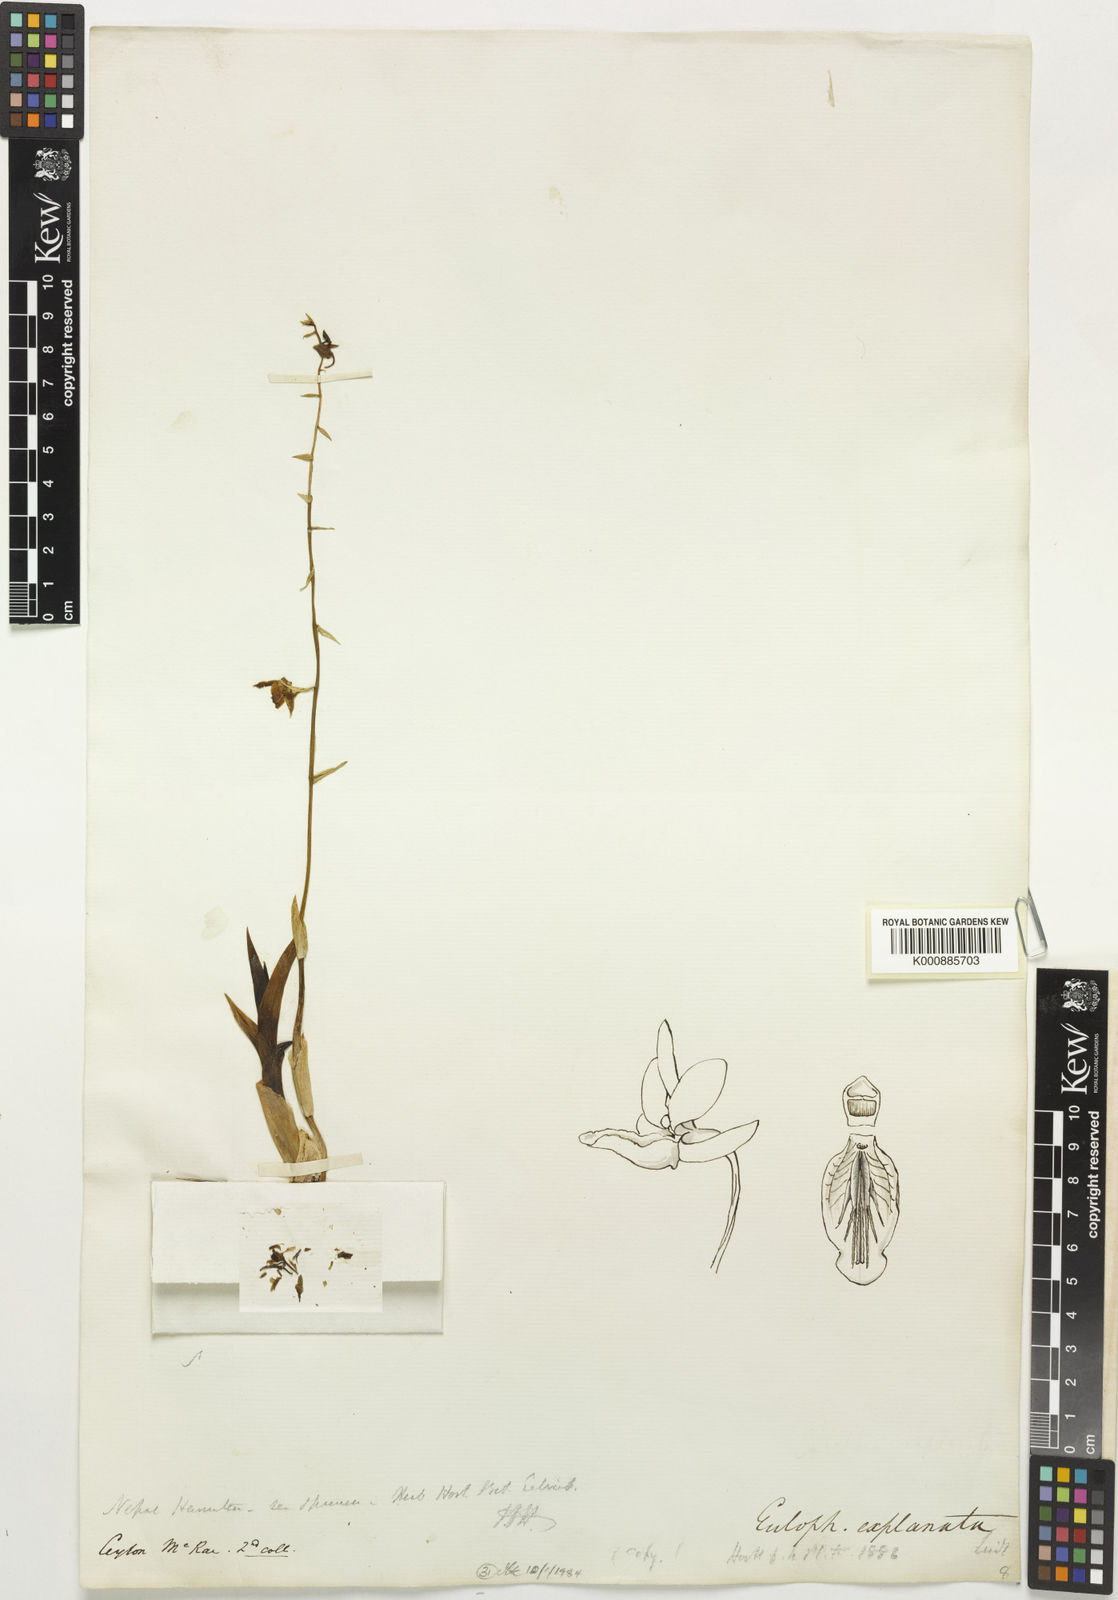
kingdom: Plantae
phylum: Tracheophyta
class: Liliopsida
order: Asparagales
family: Orchidaceae
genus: Eulophia
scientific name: Eulophia explanata
